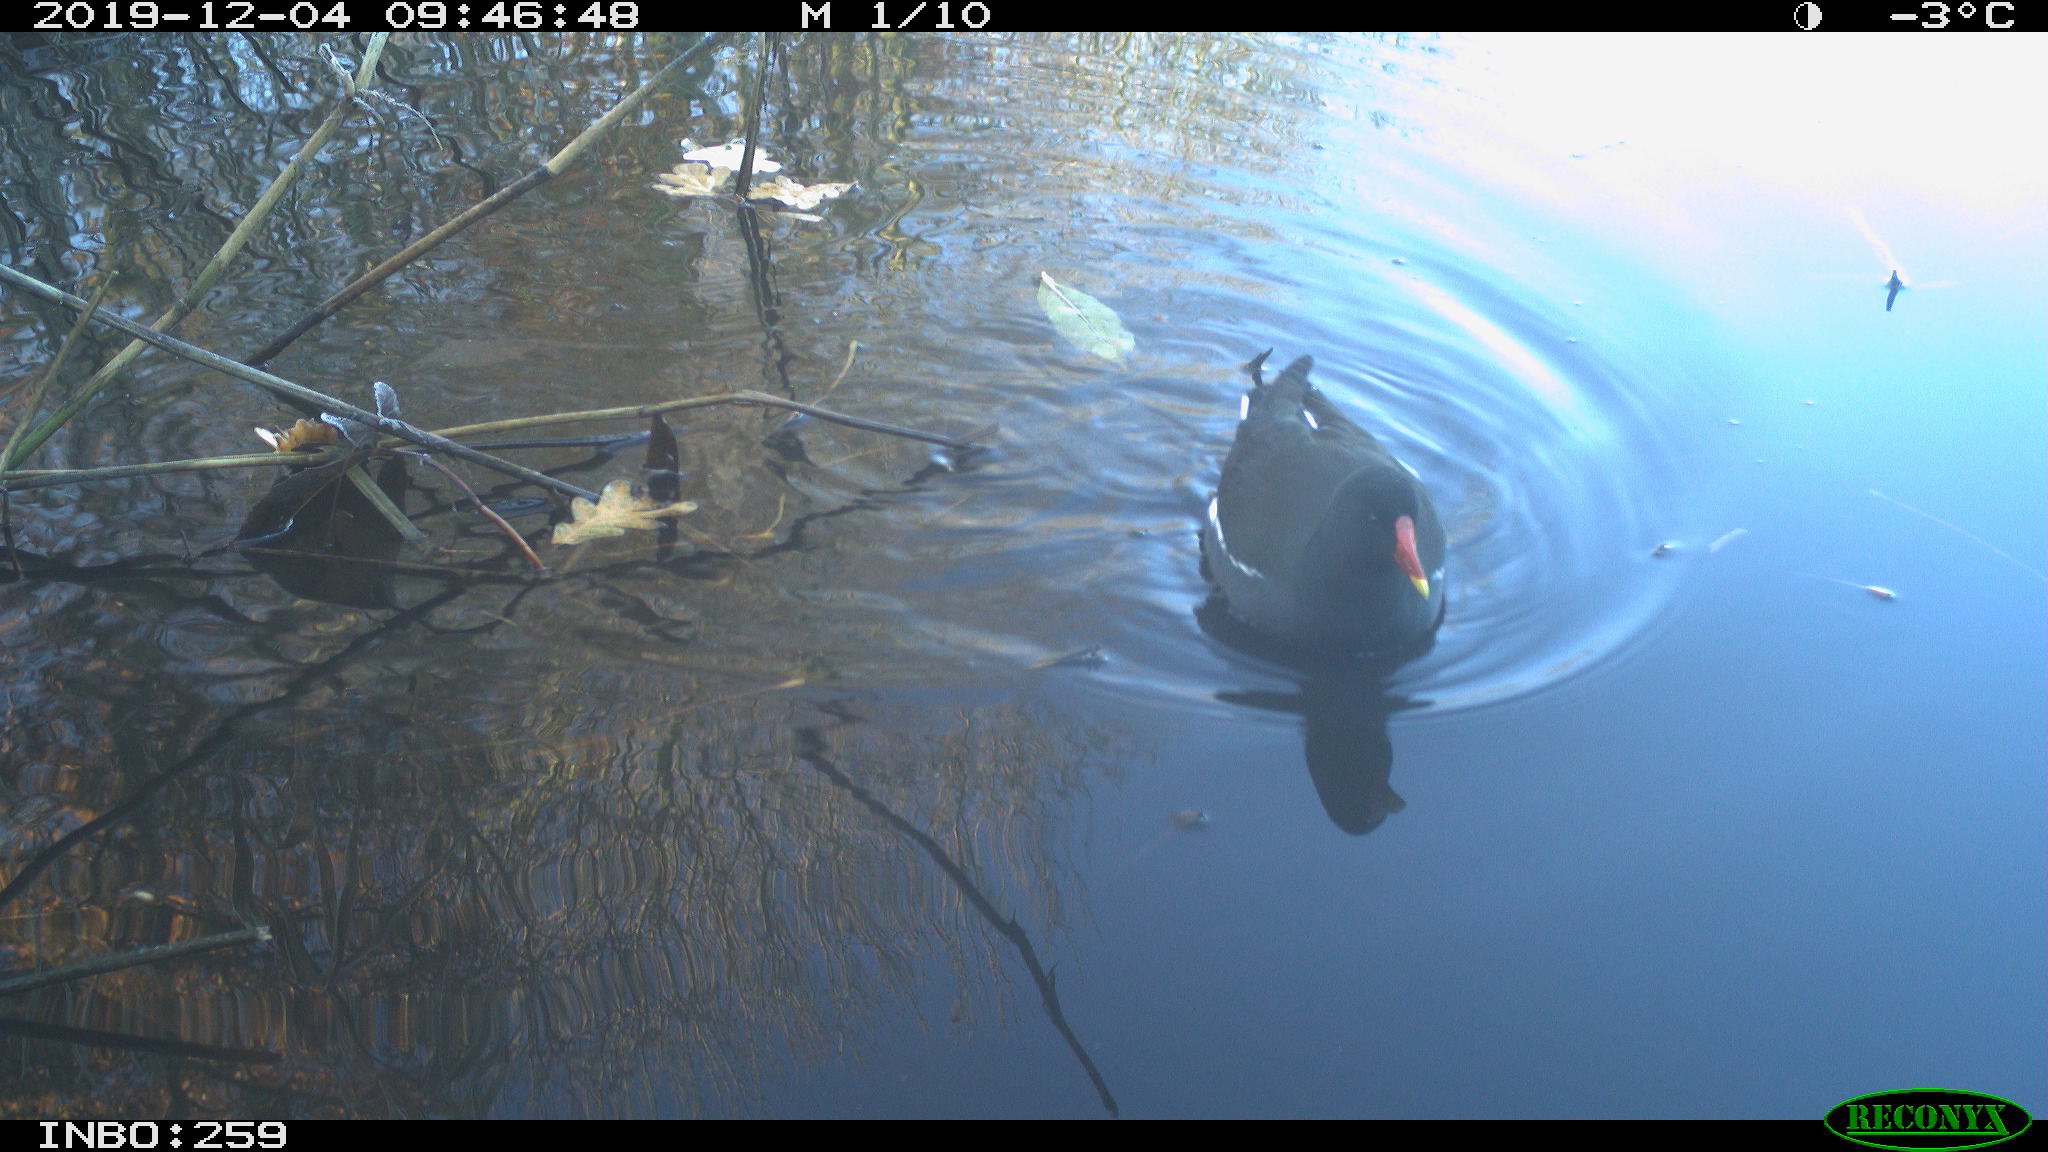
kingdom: Animalia
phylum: Chordata
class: Aves
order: Gruiformes
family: Rallidae
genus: Gallinula
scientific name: Gallinula chloropus
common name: Common moorhen
